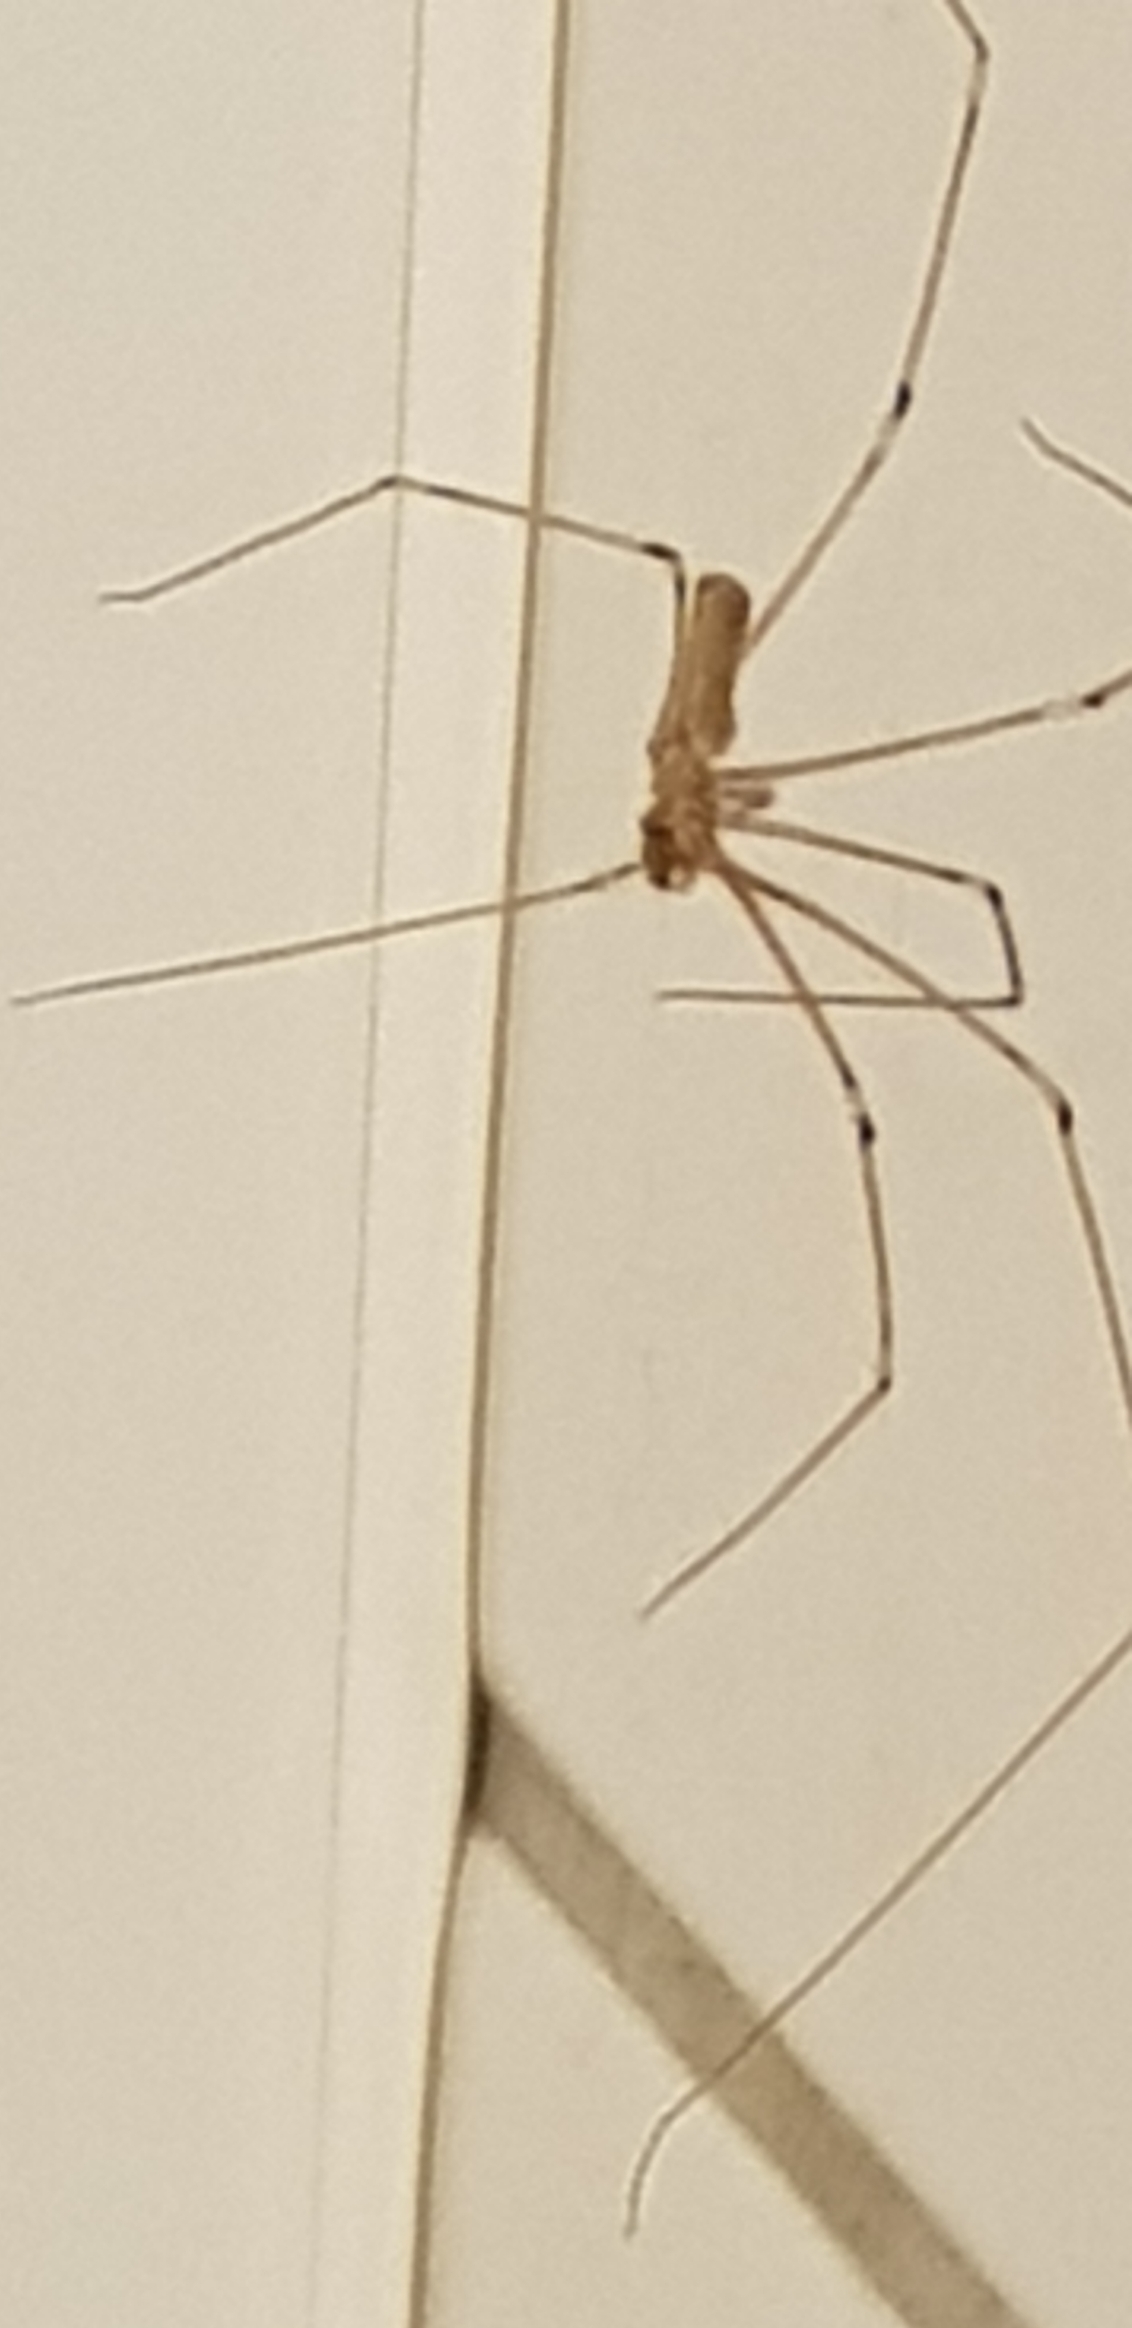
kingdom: Animalia
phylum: Arthropoda
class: Arachnida
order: Araneae
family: Pholcidae
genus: Pholcus
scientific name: Pholcus phalangioides
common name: Mejeredderkop
